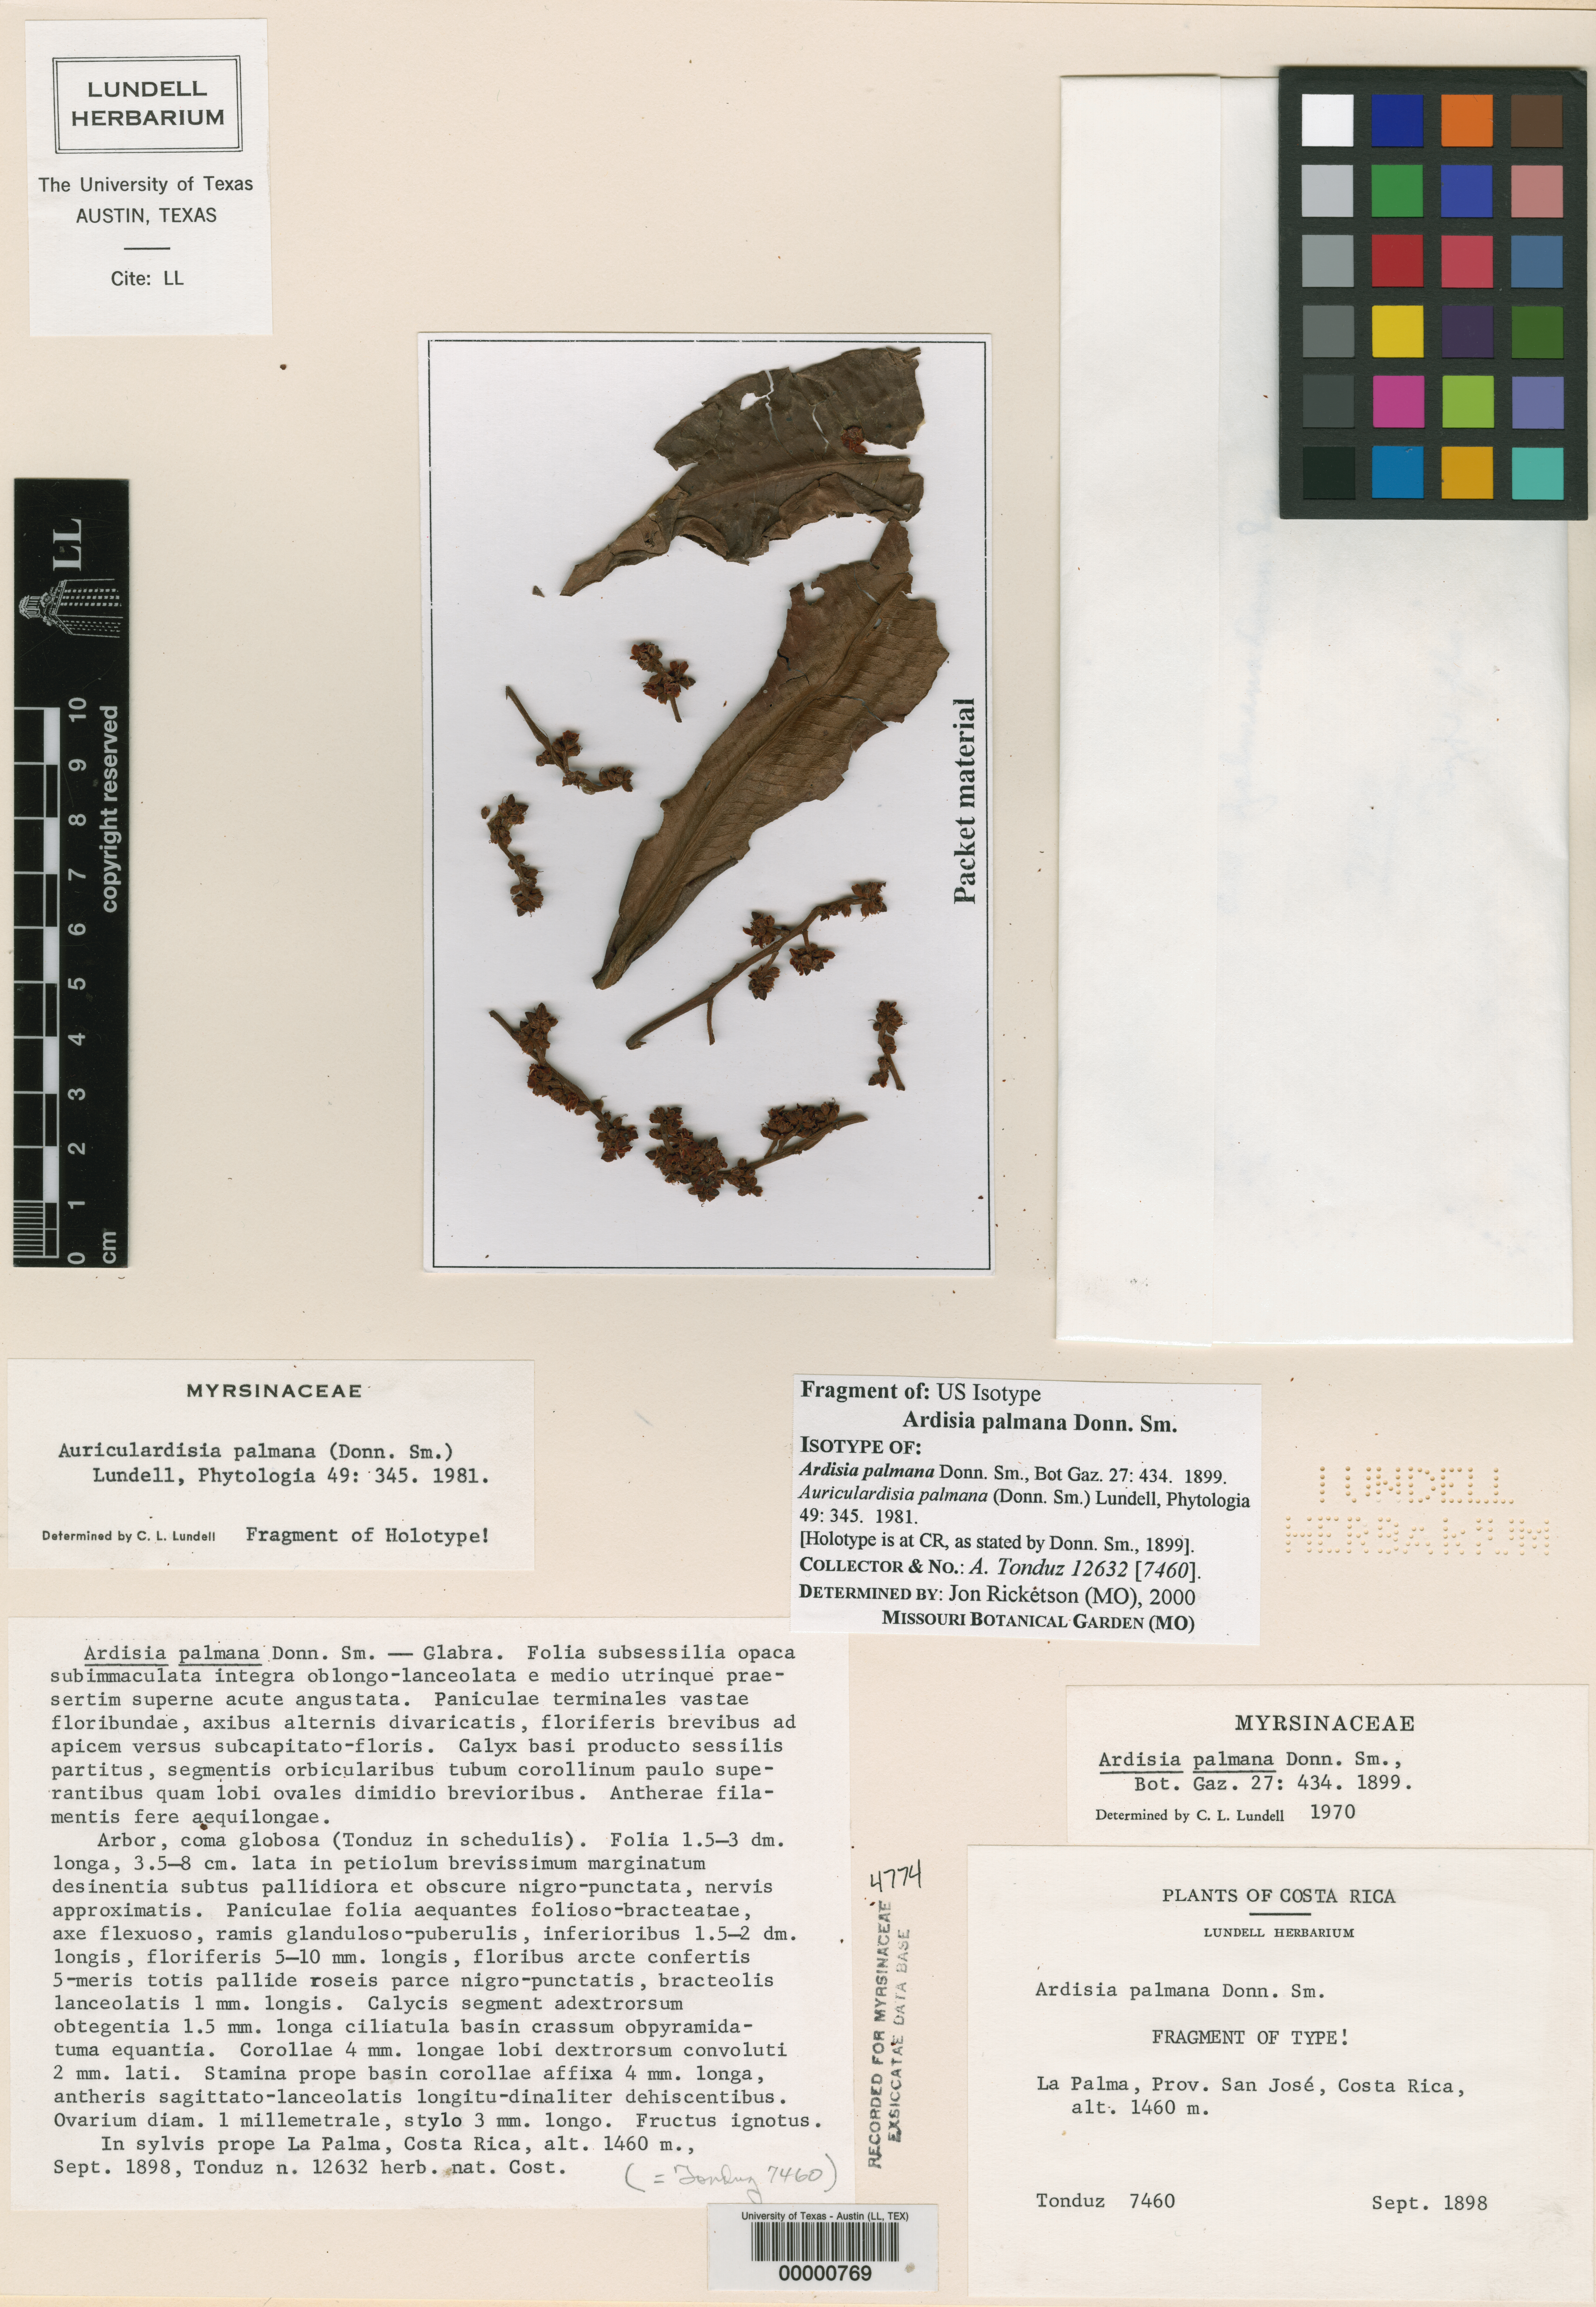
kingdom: Plantae
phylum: Tracheophyta
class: Magnoliopsida
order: Ericales
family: Primulaceae
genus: Ardisia
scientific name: Ardisia palmana
